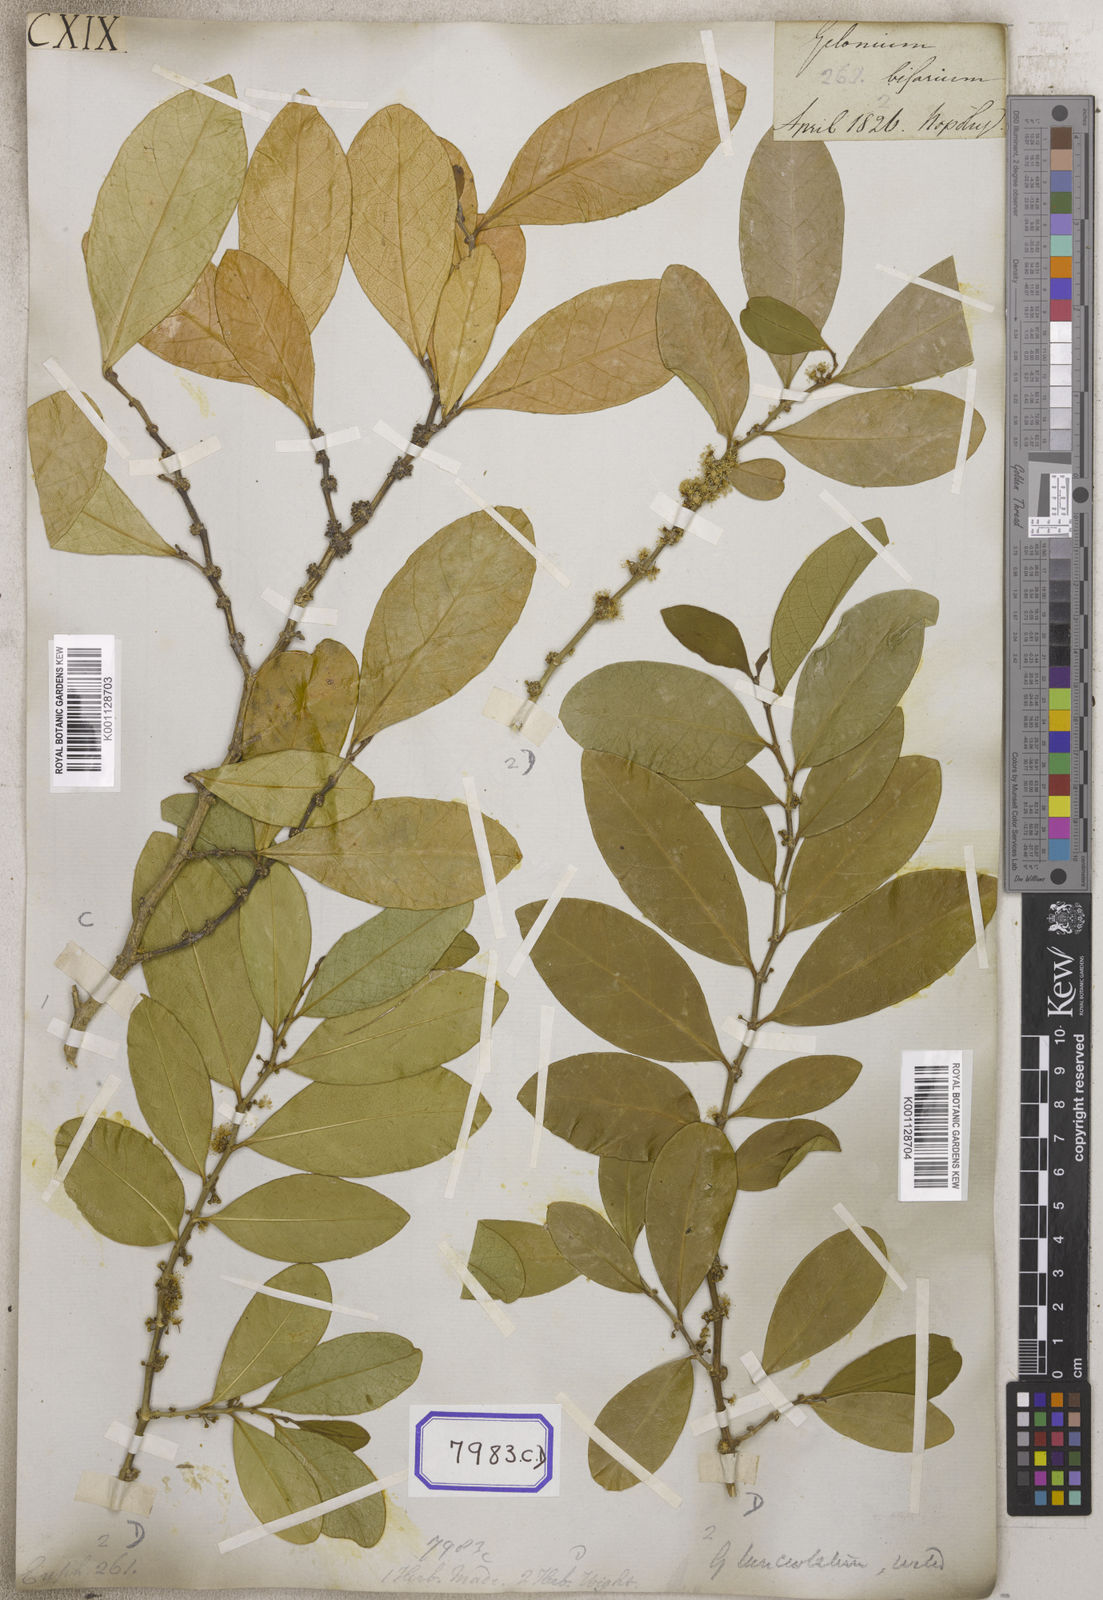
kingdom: Plantae
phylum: Tracheophyta
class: Magnoliopsida
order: Malpighiales
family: Euphorbiaceae
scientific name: Euphorbiaceae
